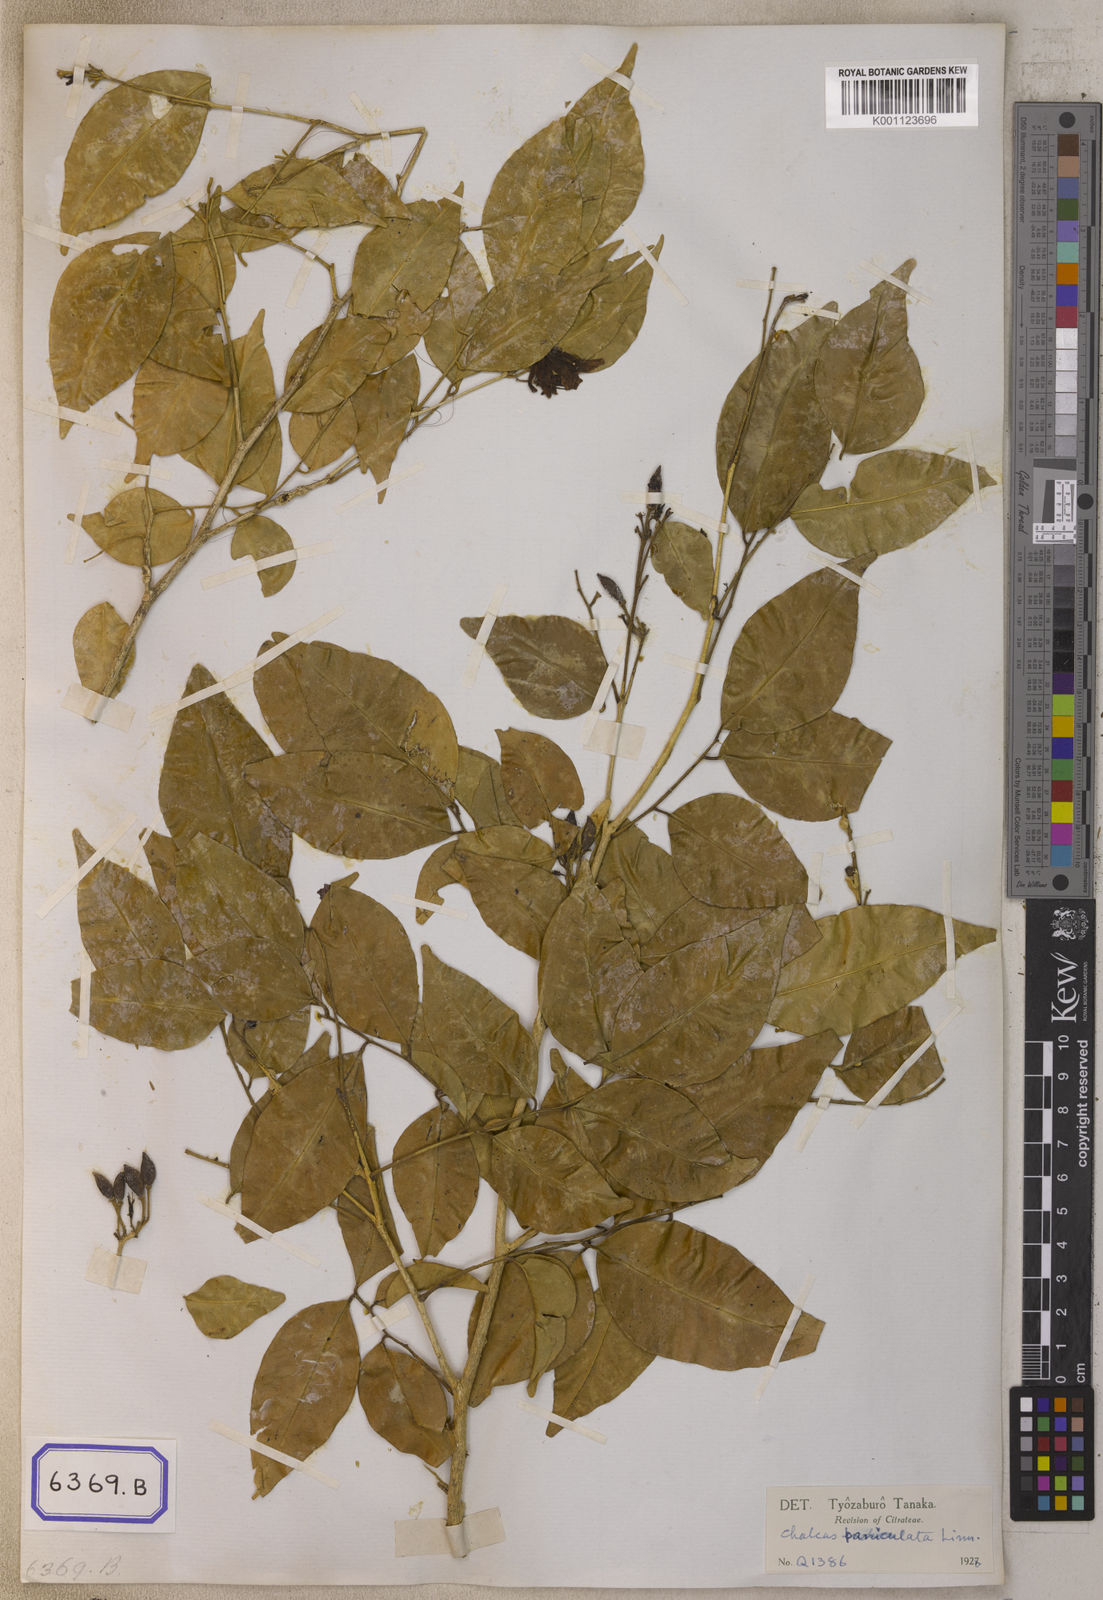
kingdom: Plantae
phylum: Tracheophyta
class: Magnoliopsida
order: Sapindales
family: Rutaceae
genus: Murraya
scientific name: Murraya sumatrana
